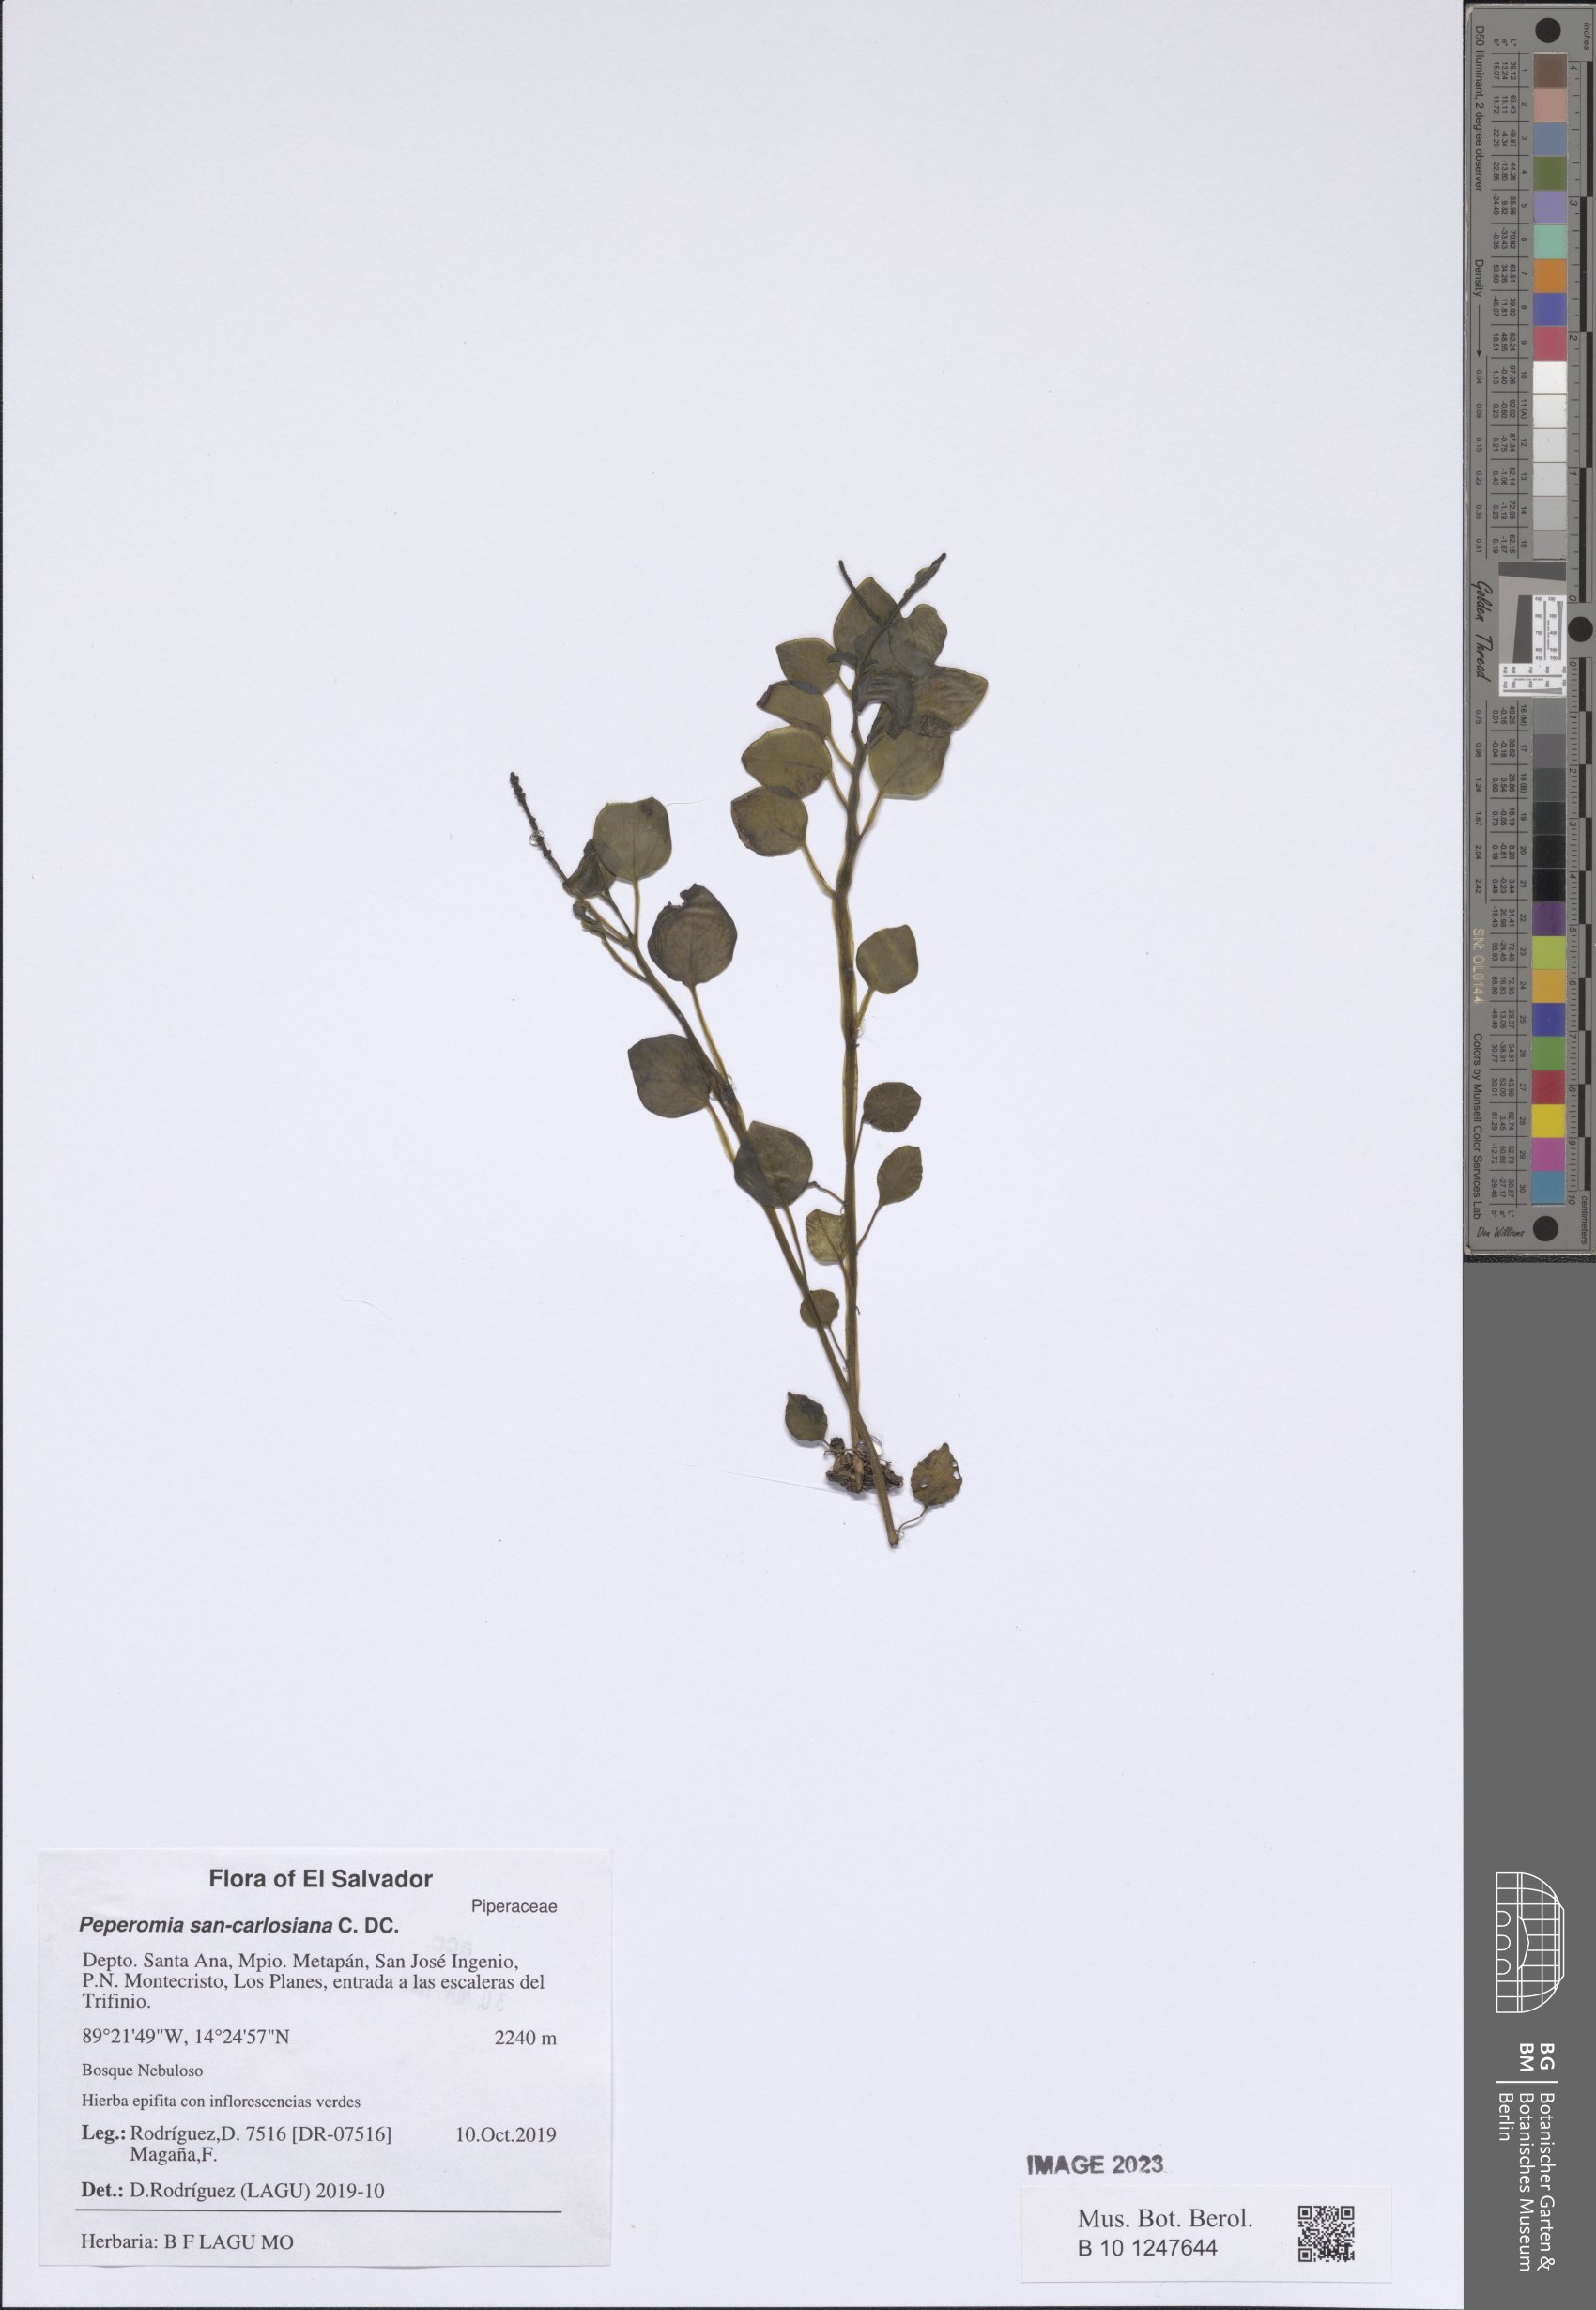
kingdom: Plantae
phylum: Tracheophyta
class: Magnoliopsida
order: Piperales
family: Piperaceae
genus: Peperomia
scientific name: Peperomia san-carlosiana
